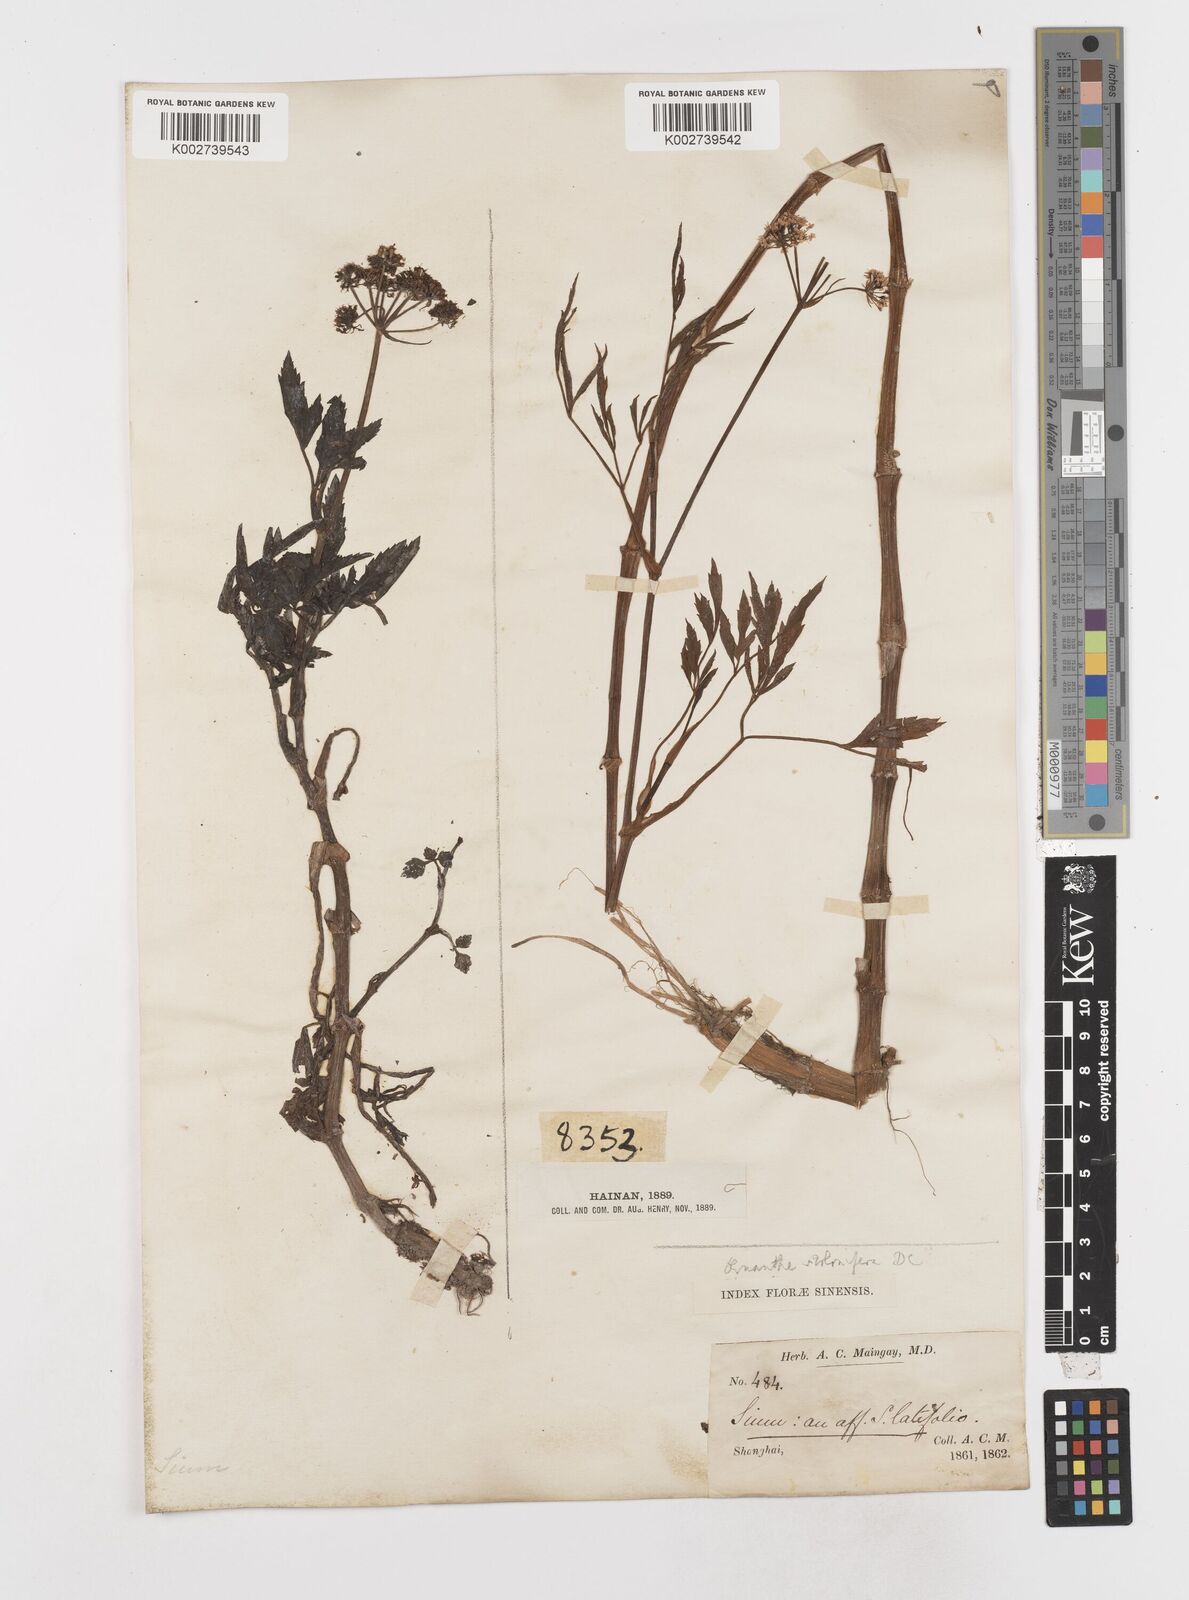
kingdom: Plantae
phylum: Tracheophyta
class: Magnoliopsida
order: Apiales
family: Apiaceae
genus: Oenanthe
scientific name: Oenanthe javanica
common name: Java water-dropwort
